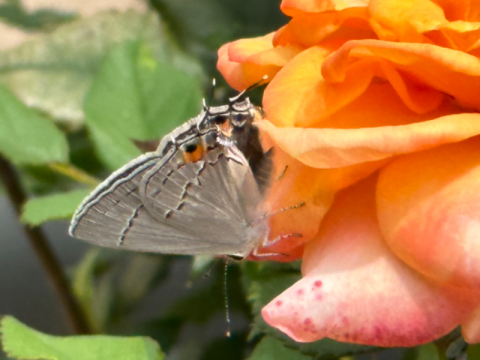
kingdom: Animalia
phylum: Arthropoda
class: Insecta
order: Lepidoptera
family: Lycaenidae
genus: Strymon
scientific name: Strymon melinus
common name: Gray Hairstreak
